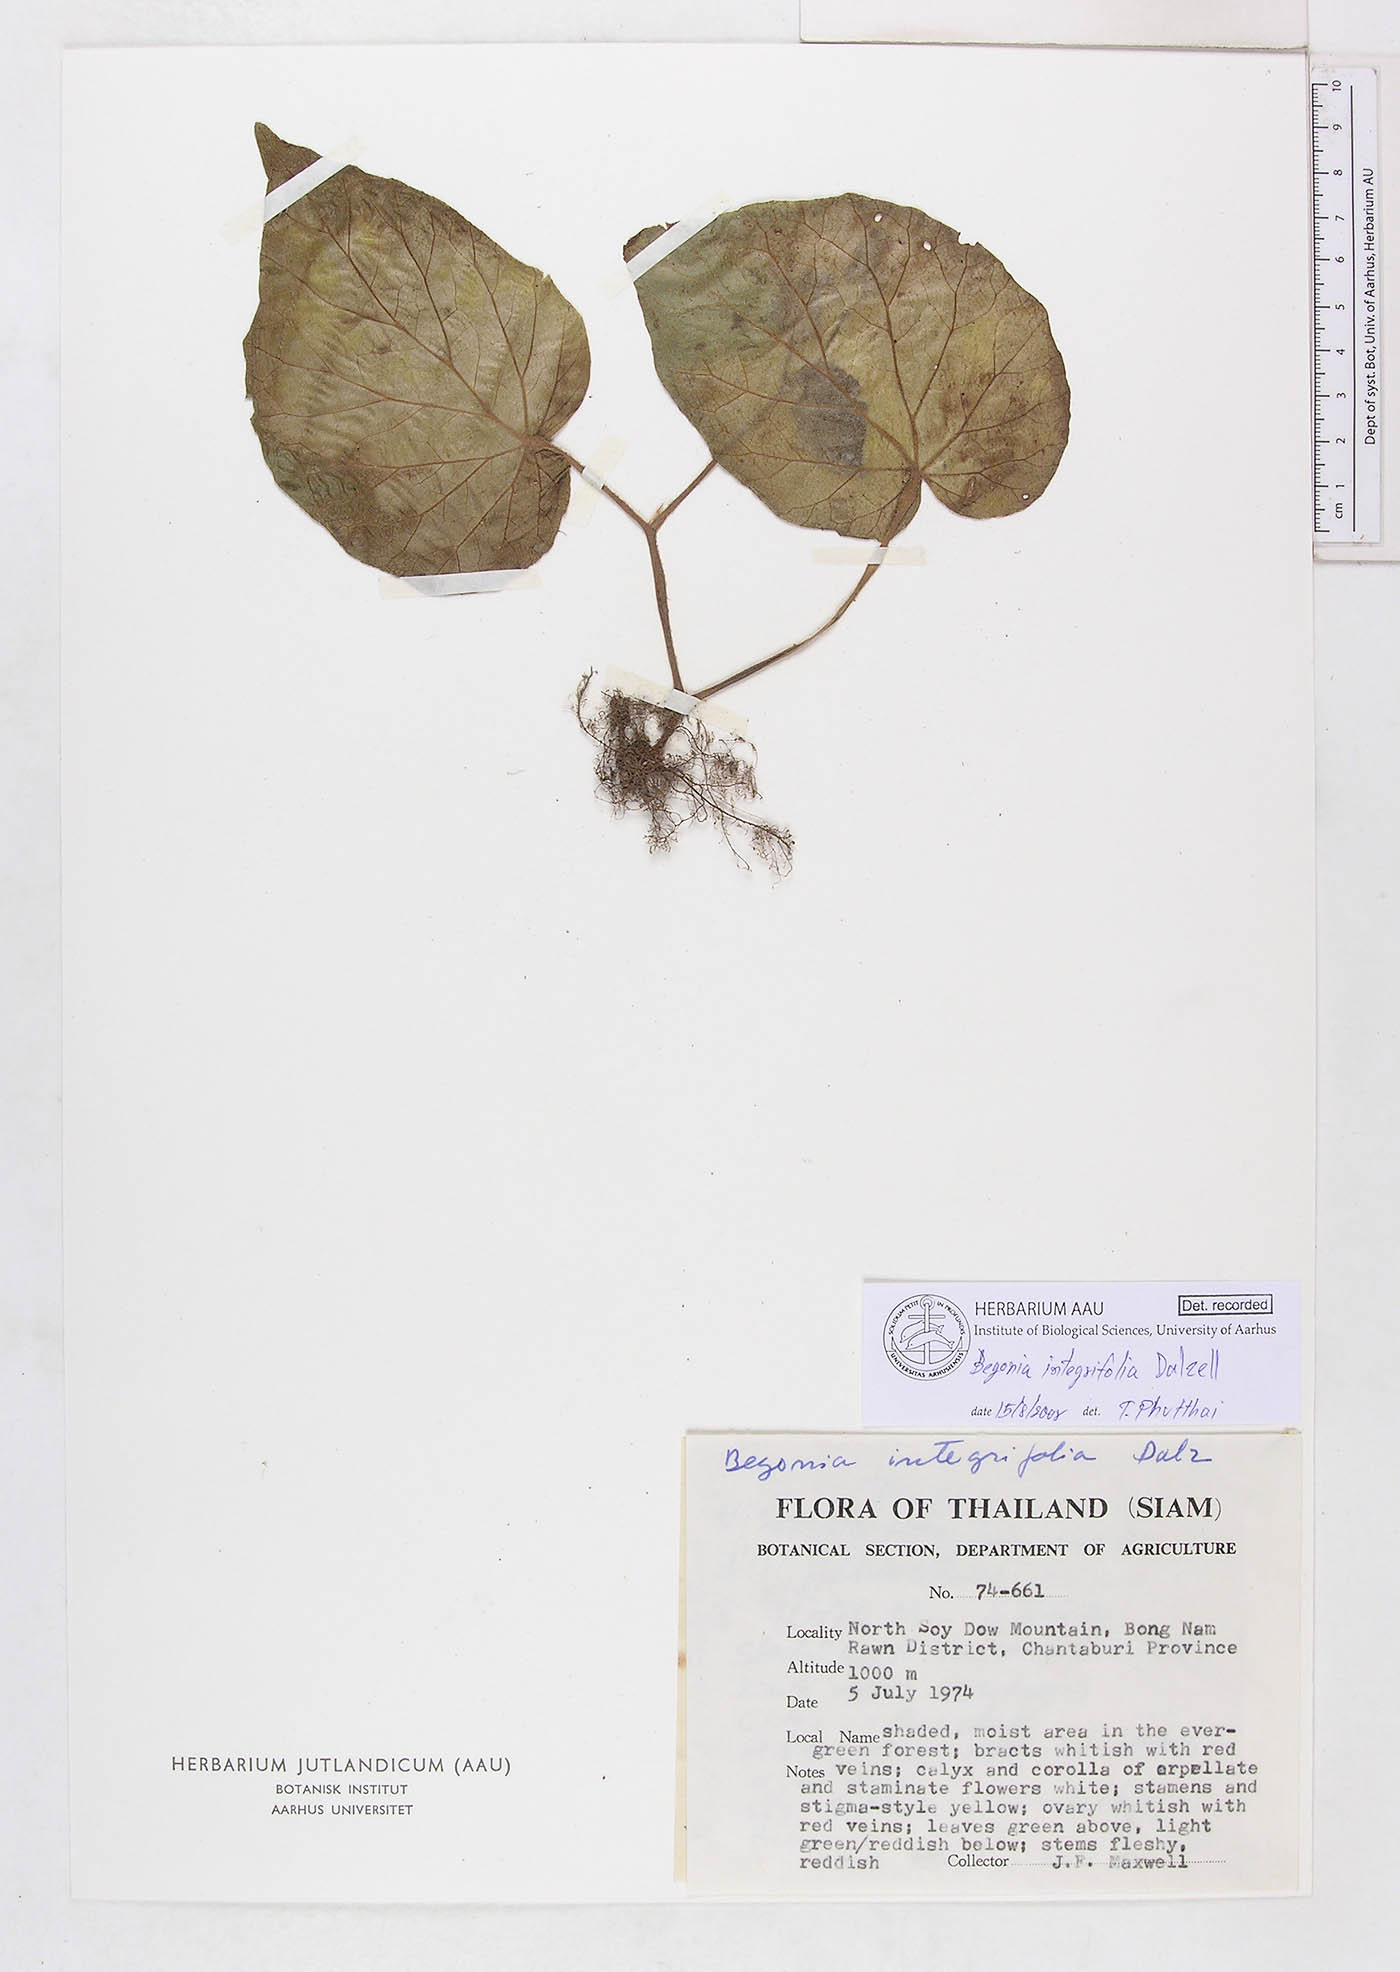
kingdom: Plantae
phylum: Tracheophyta
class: Magnoliopsida
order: Cucurbitales
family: Begoniaceae
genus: Begonia
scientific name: Begonia integrifolia
